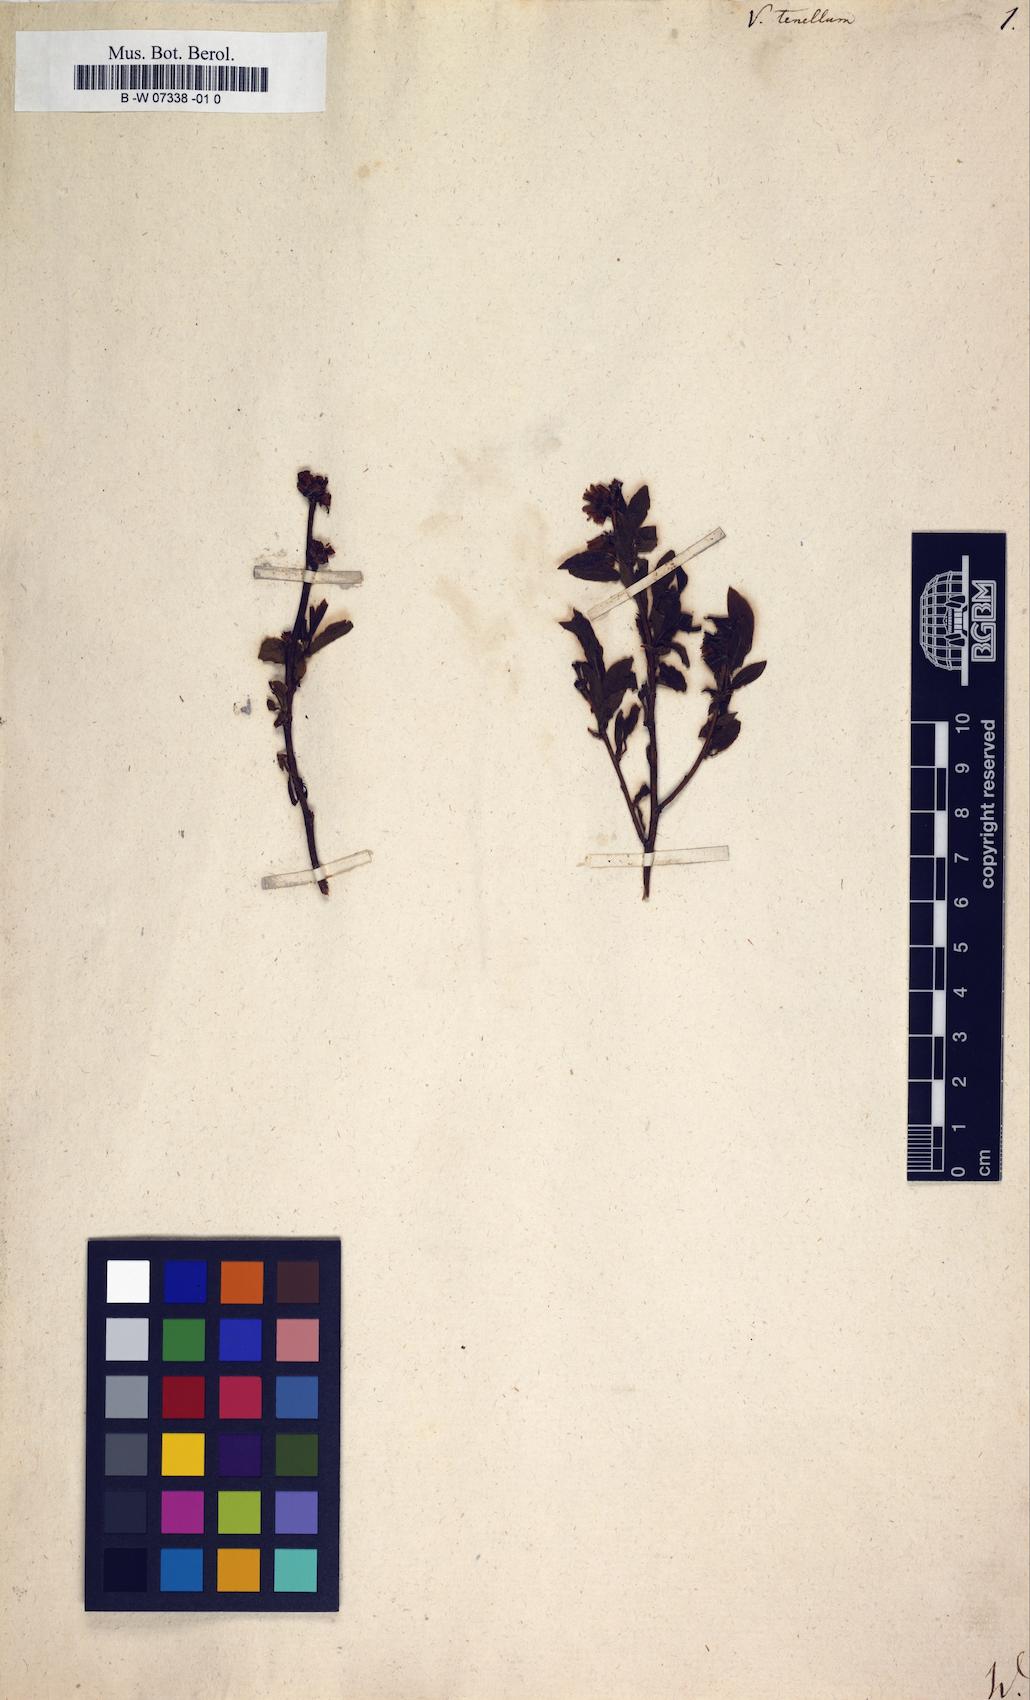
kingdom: Plantae
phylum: Tracheophyta
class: Magnoliopsida
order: Ericales
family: Ericaceae
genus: Vaccinium
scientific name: Vaccinium tenellum
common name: Southern blueberry
